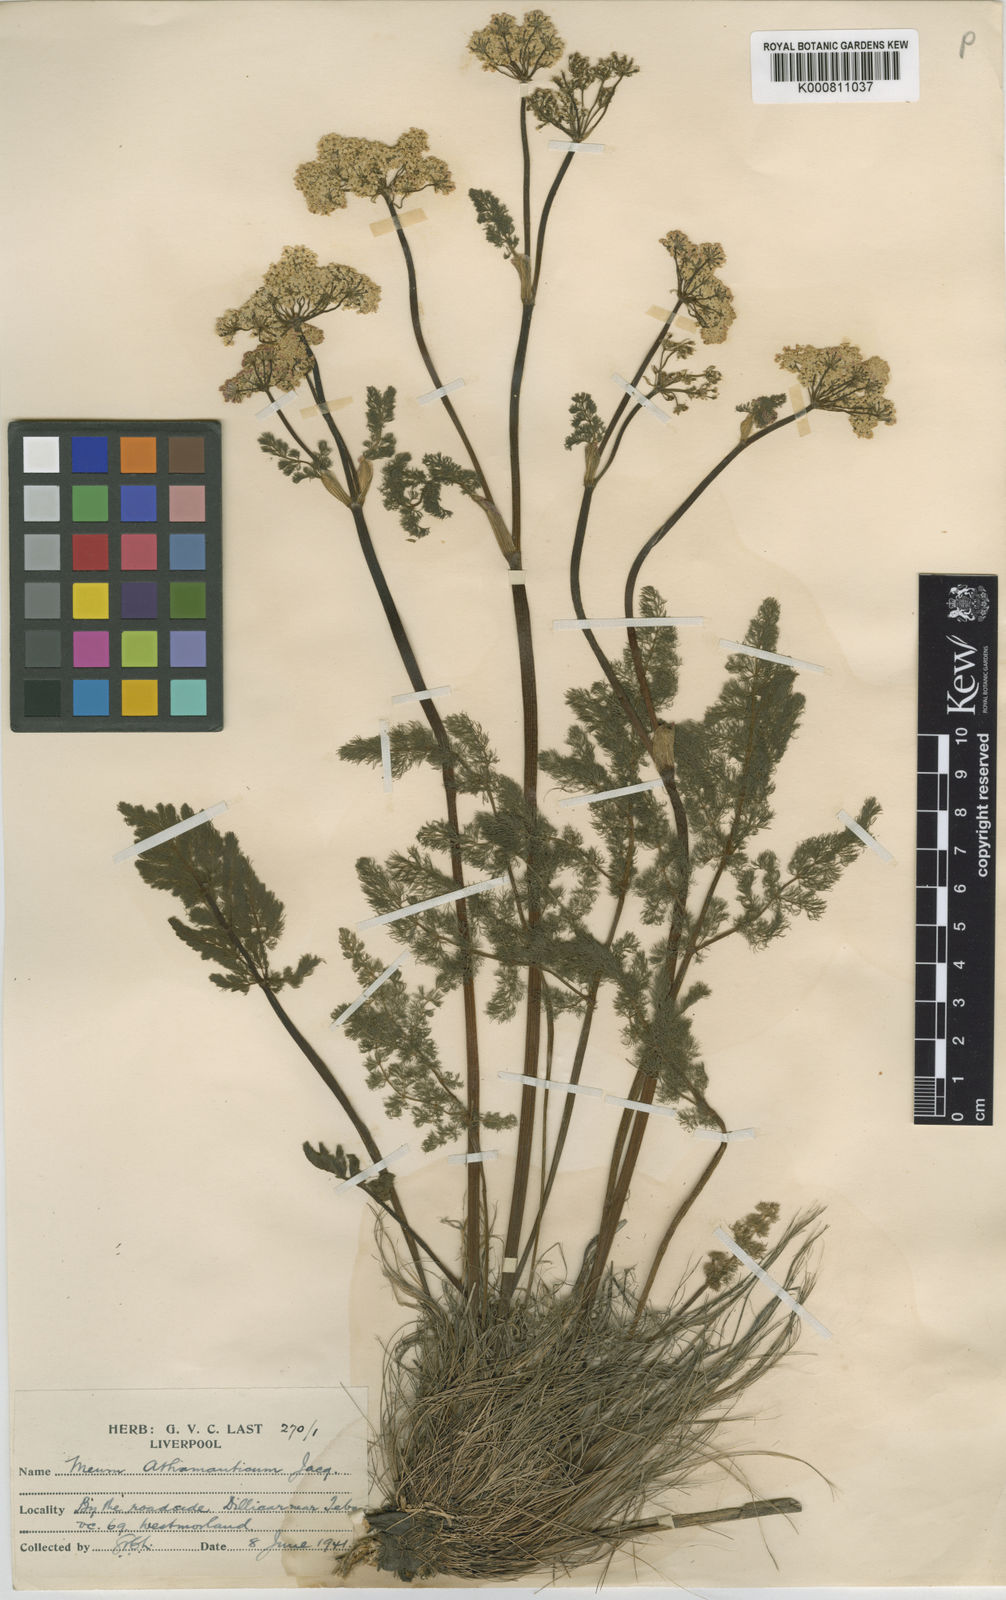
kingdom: Plantae
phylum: Tracheophyta
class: Magnoliopsida
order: Apiales
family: Apiaceae
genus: Meum
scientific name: Meum athamanticum
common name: Spignel
